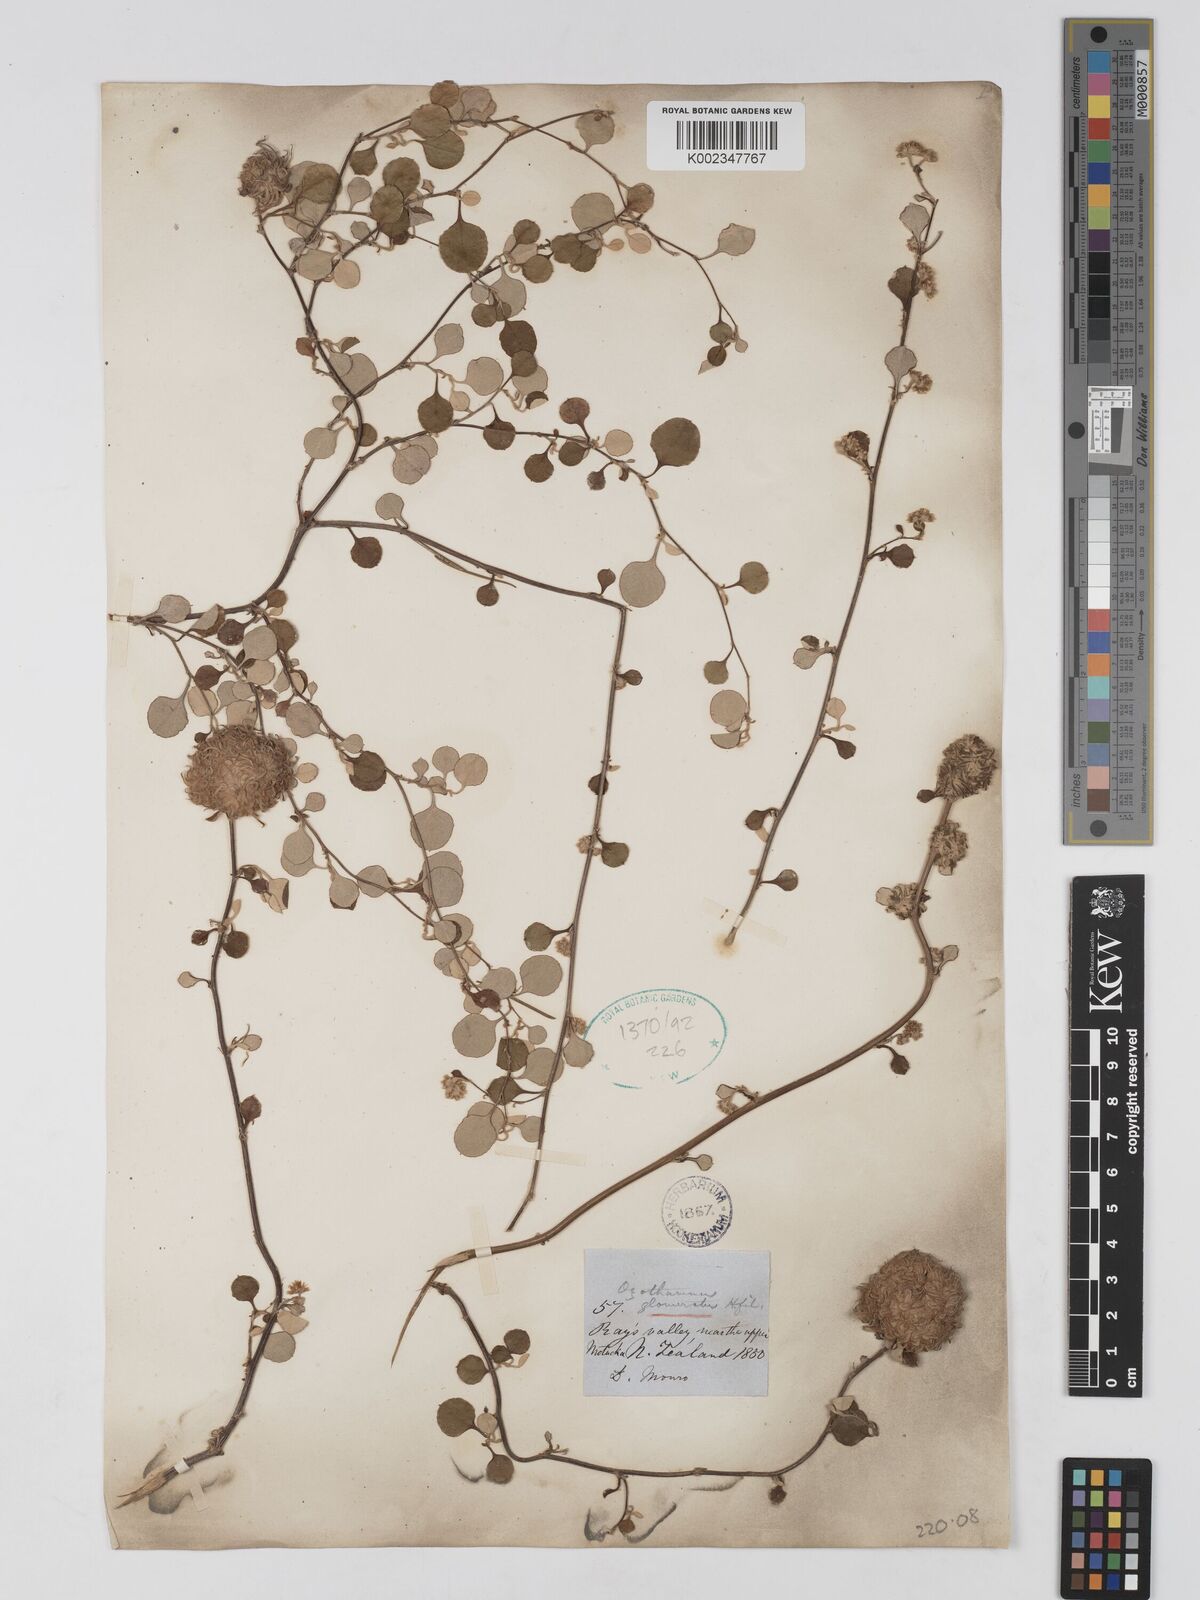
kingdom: Plantae
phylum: Tracheophyta
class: Magnoliopsida
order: Asterales
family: Asteraceae
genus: Ozothamnus
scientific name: Ozothamnus glomeratus
